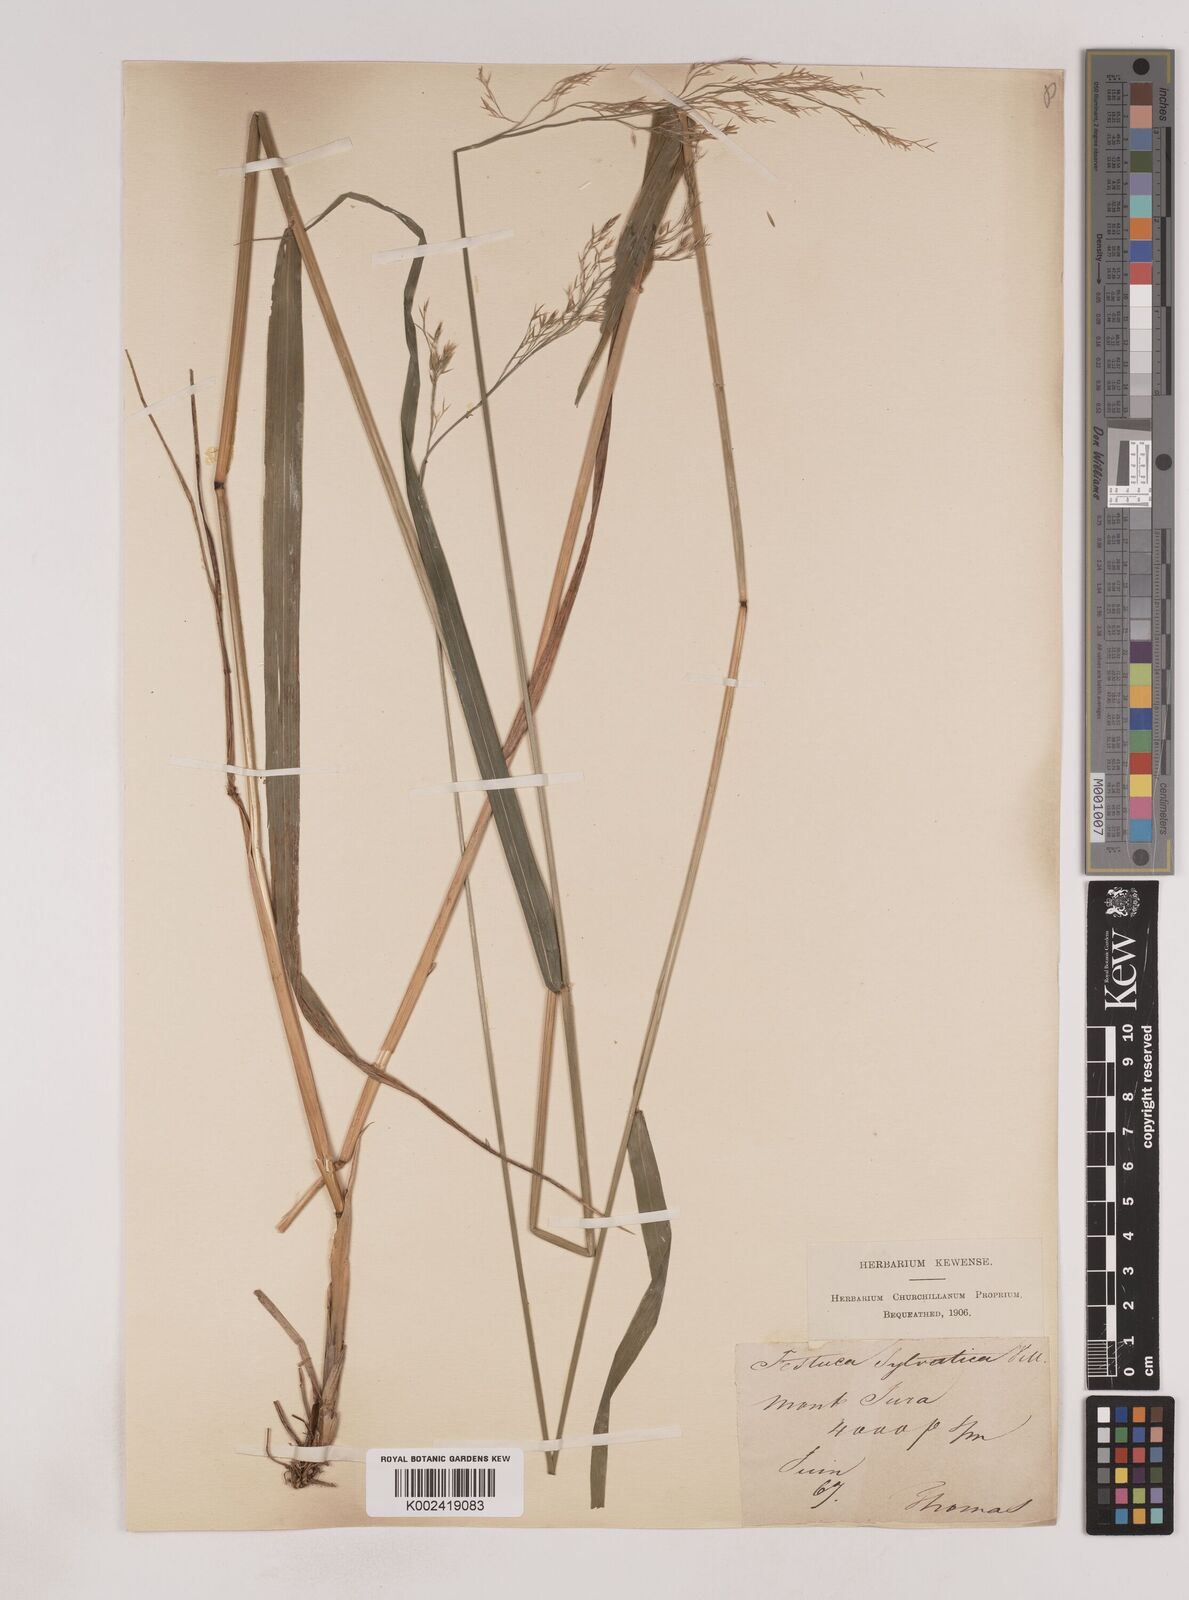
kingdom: Plantae
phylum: Tracheophyta
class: Liliopsida
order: Poales
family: Poaceae
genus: Festuca
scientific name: Festuca drymeja
